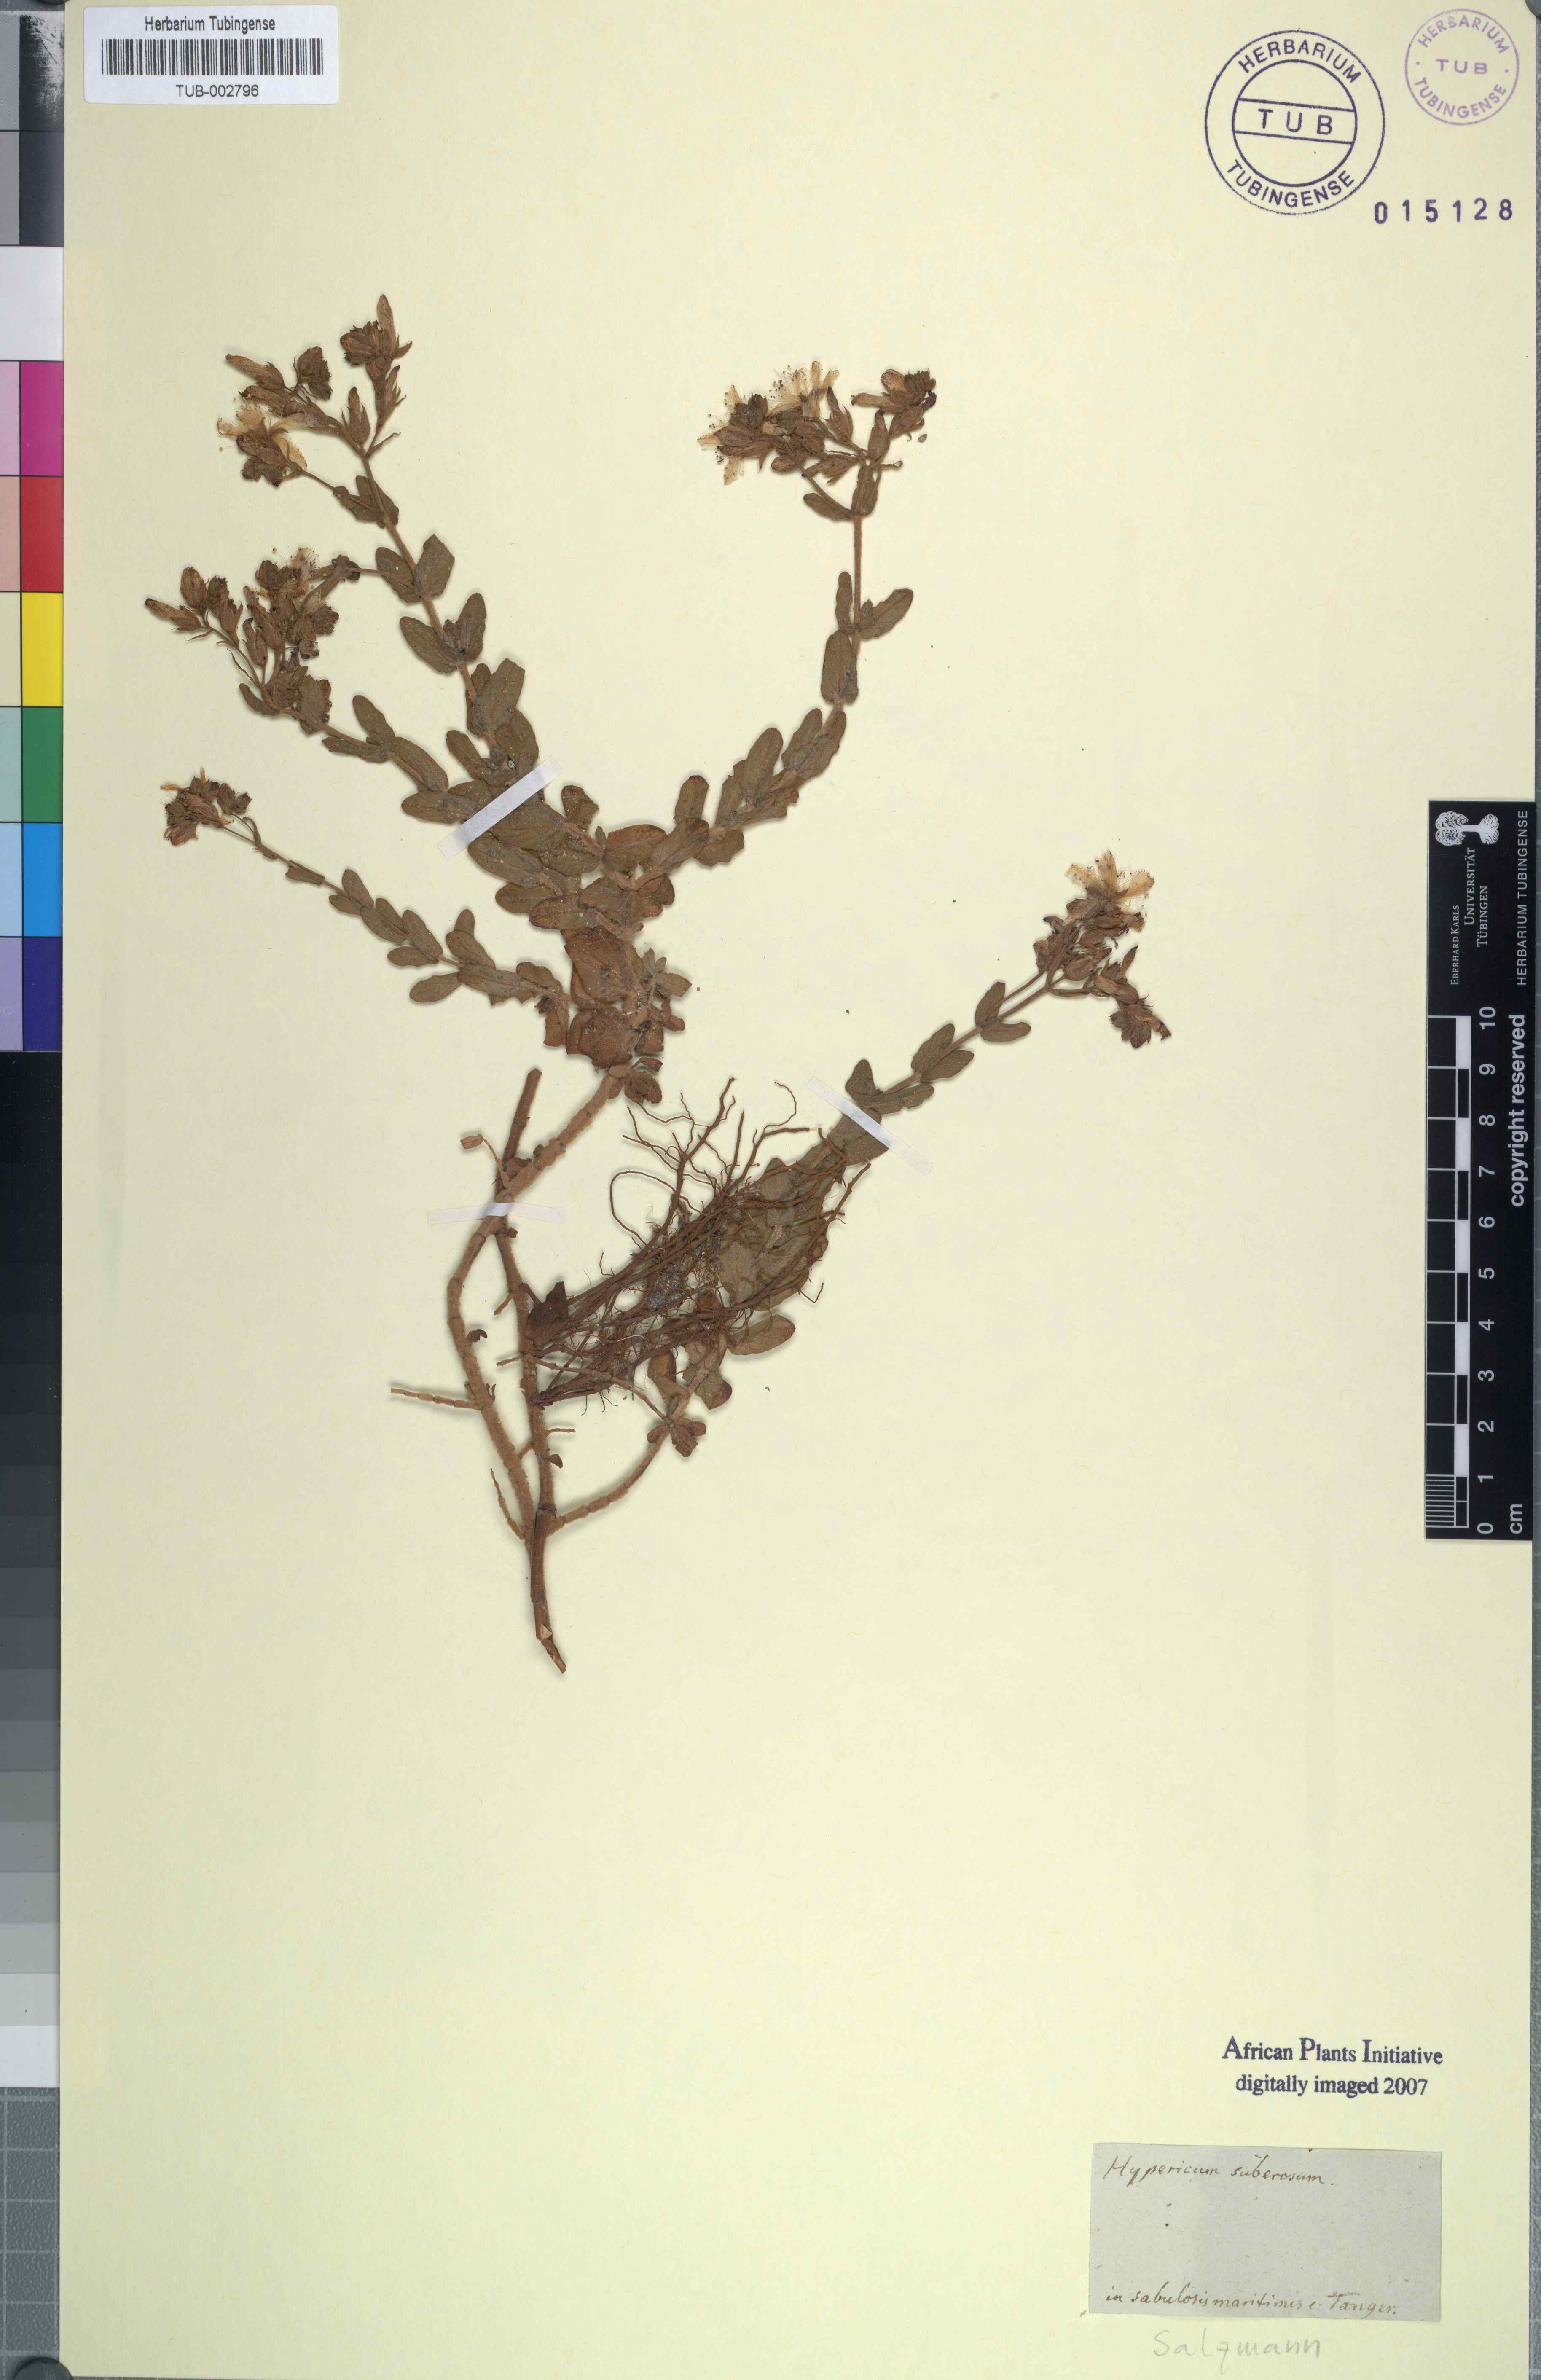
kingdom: Plantae
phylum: Tracheophyta
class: Magnoliopsida
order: Malpighiales
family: Hypericaceae
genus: Hypericum
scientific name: Hypericum tomentosum
